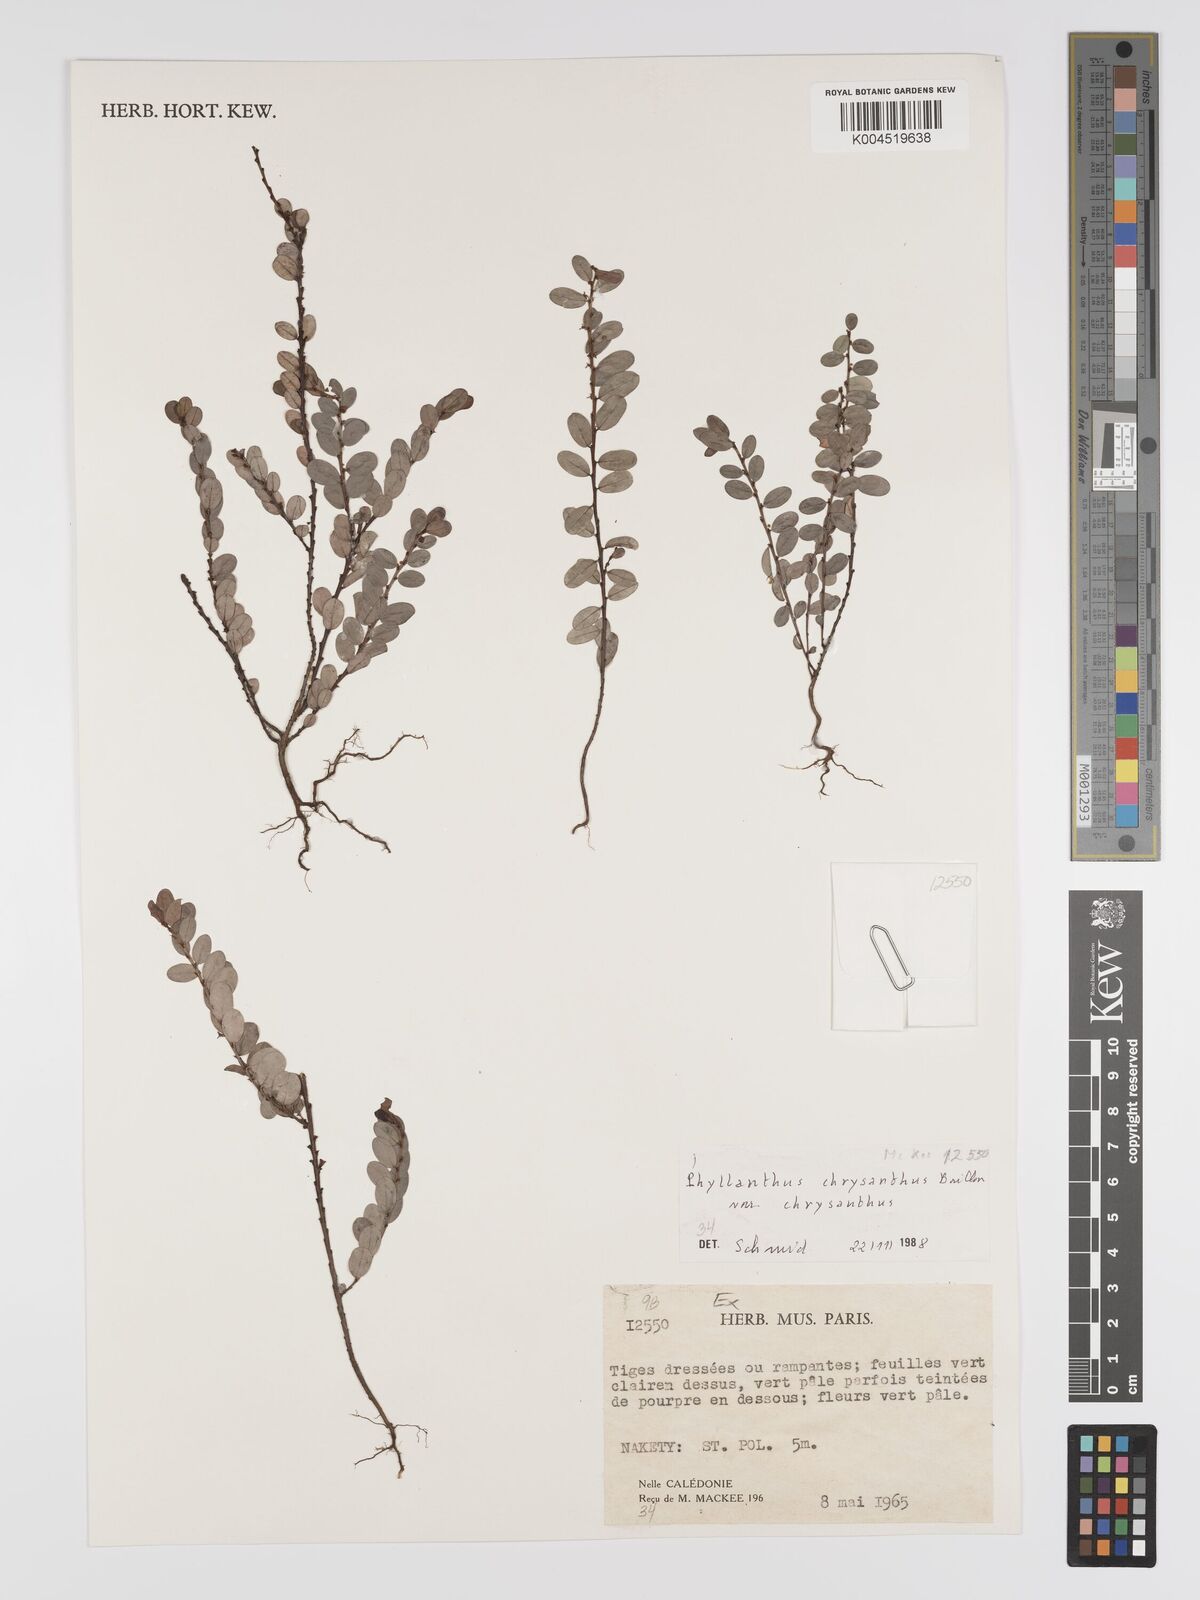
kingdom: Plantae
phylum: Tracheophyta
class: Magnoliopsida
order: Malpighiales
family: Phyllanthaceae
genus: Phyllanthus
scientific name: Phyllanthus chrysanthus
